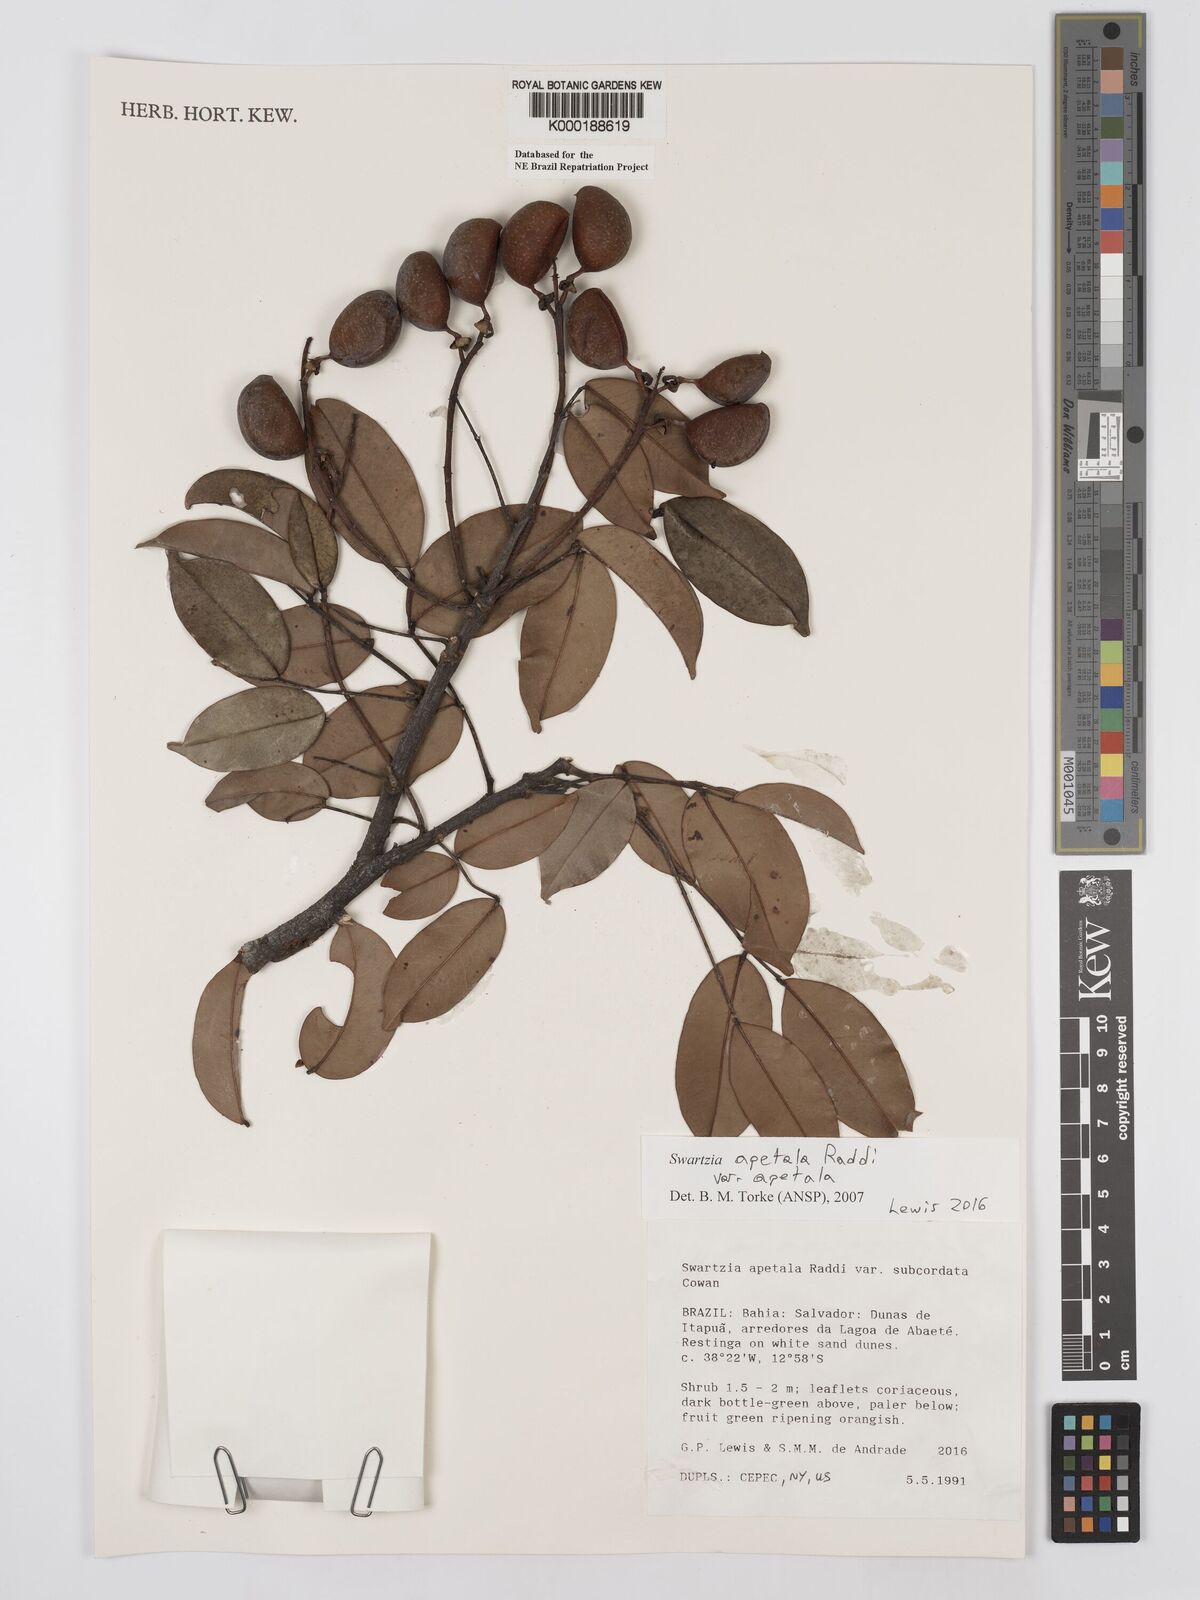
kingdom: Plantae
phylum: Tracheophyta
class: Magnoliopsida
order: Fabales
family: Fabaceae
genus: Swartzia
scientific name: Swartzia apetala
